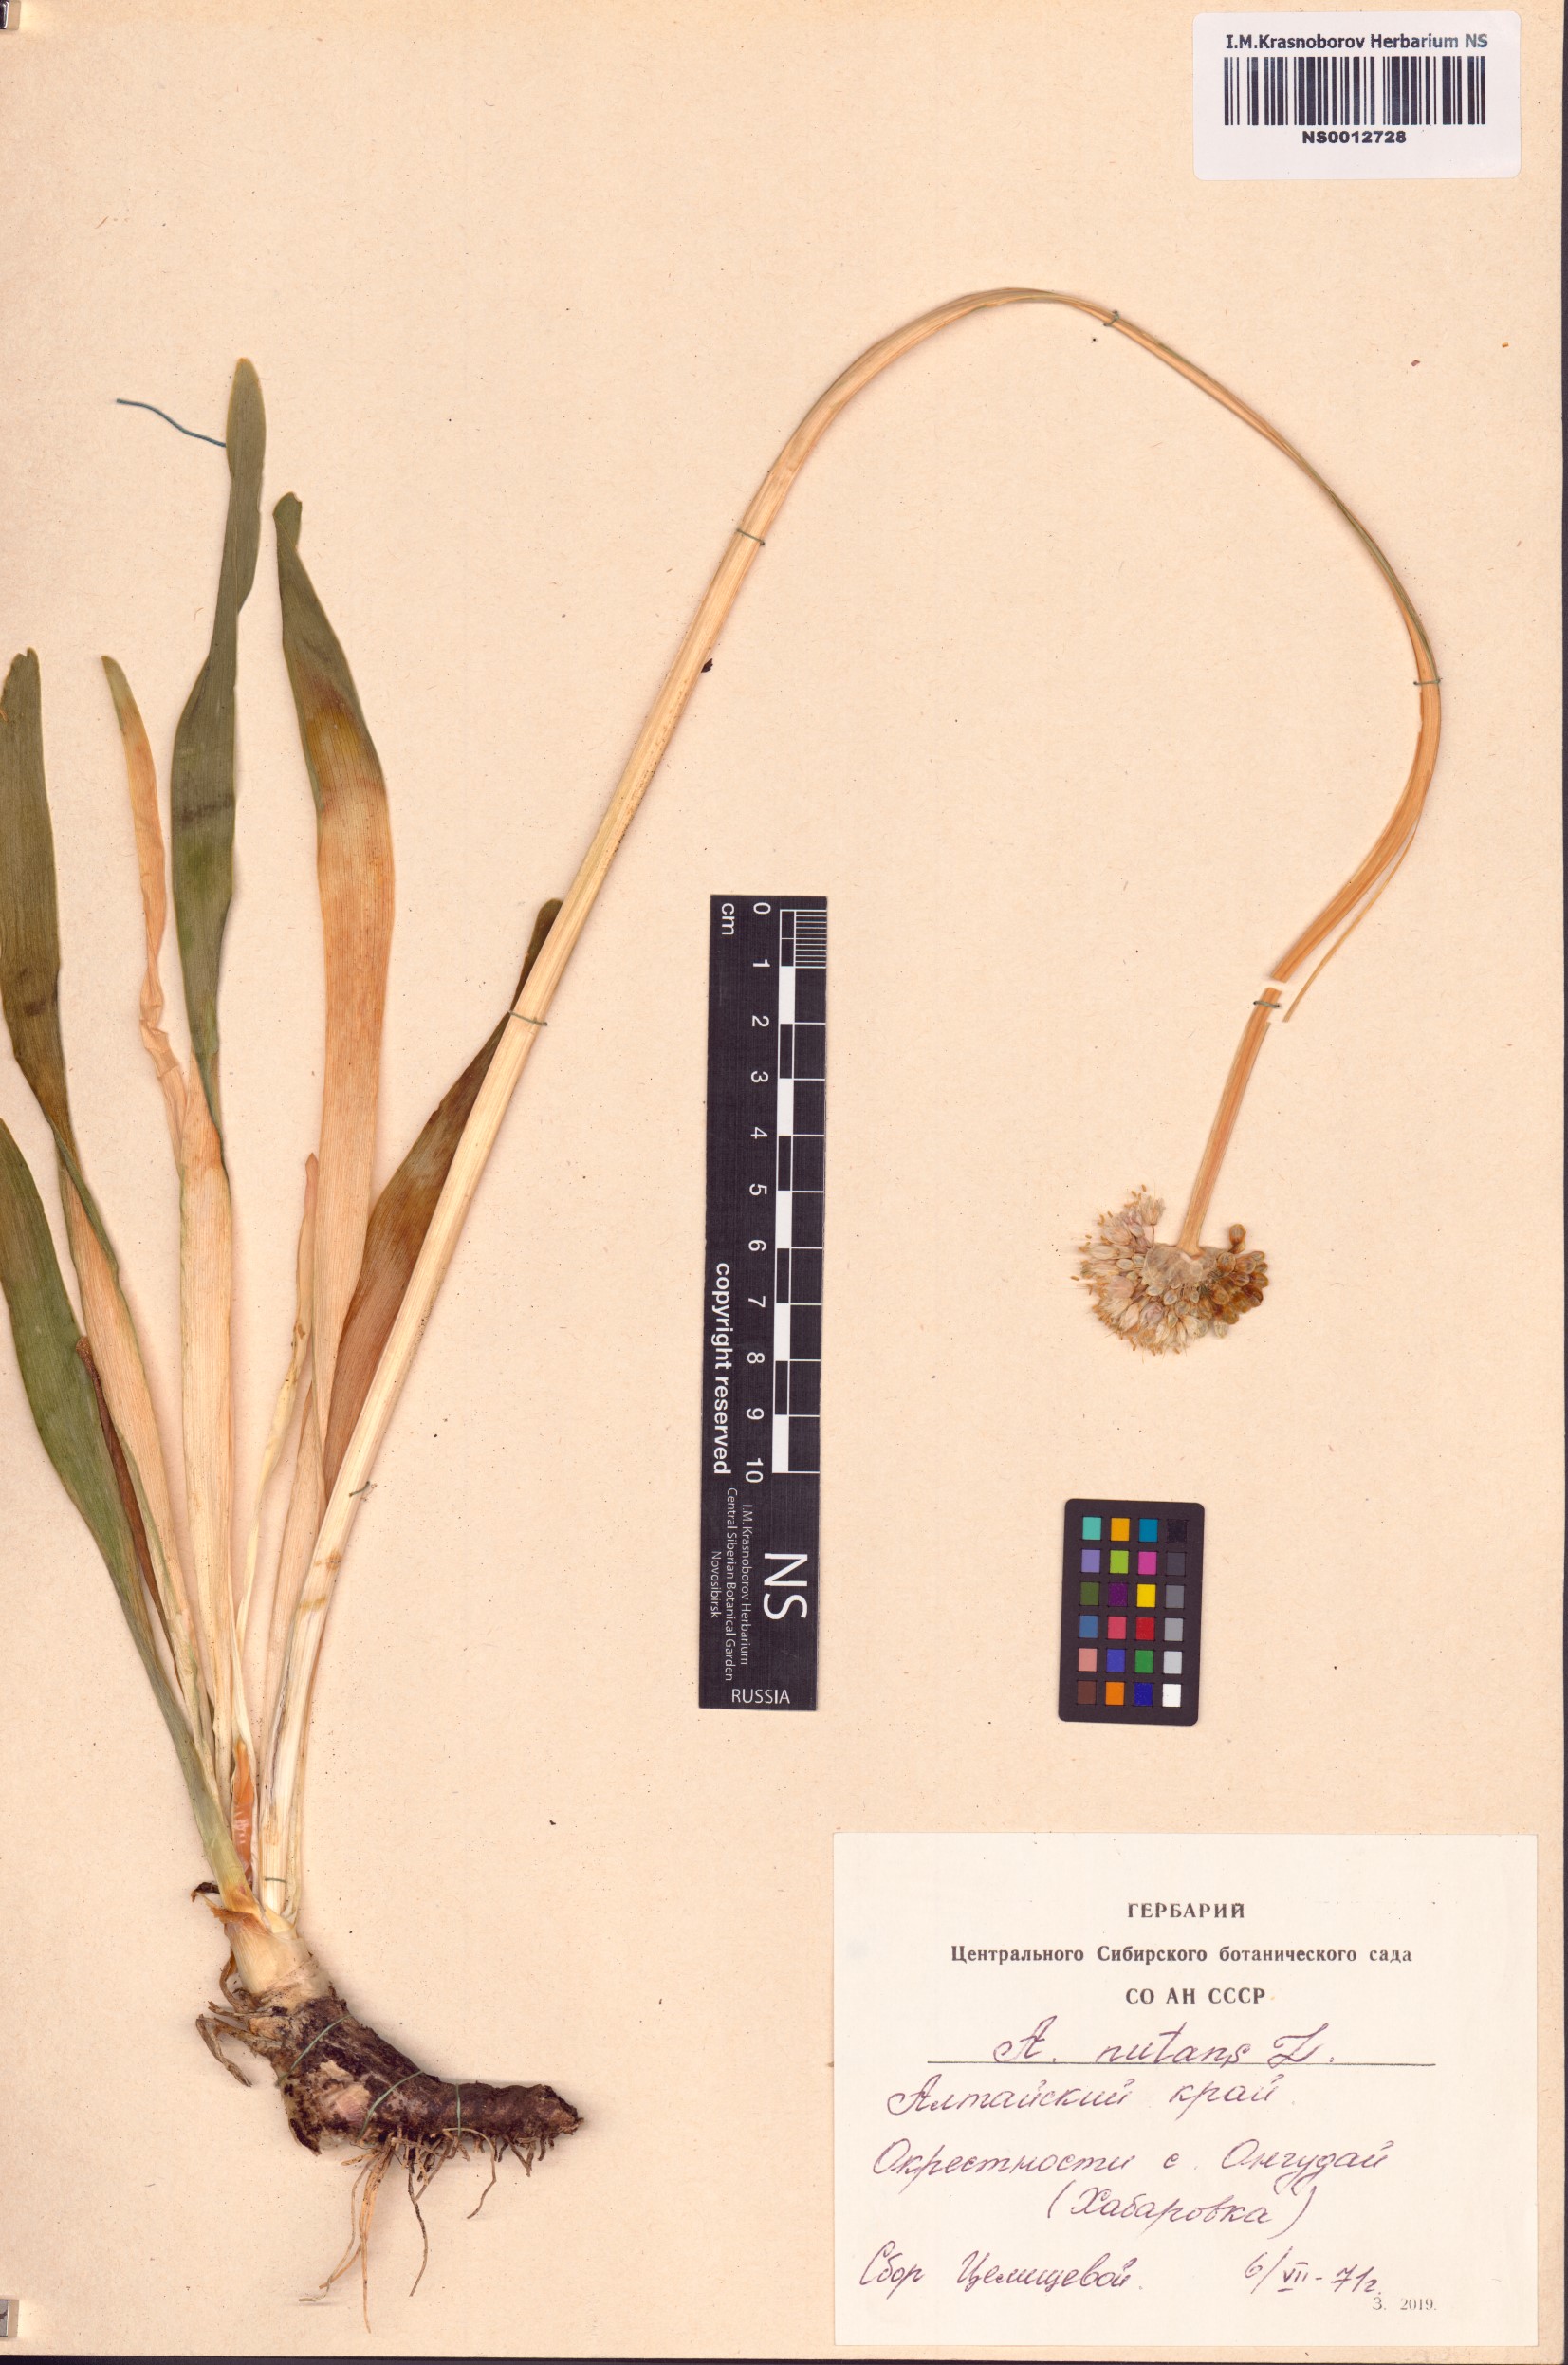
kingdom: Plantae
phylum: Tracheophyta
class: Liliopsida
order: Asparagales
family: Amaryllidaceae
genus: Allium
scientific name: Allium nutans
